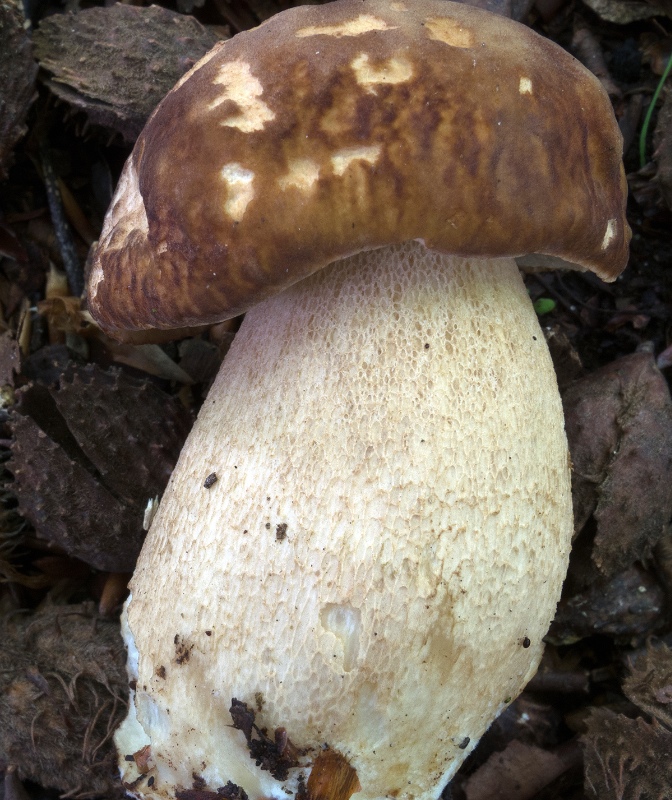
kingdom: Fungi
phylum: Basidiomycota
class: Agaricomycetes
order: Boletales
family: Boletaceae
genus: Boletus
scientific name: Boletus reticulatus
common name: sommer-rørhat
